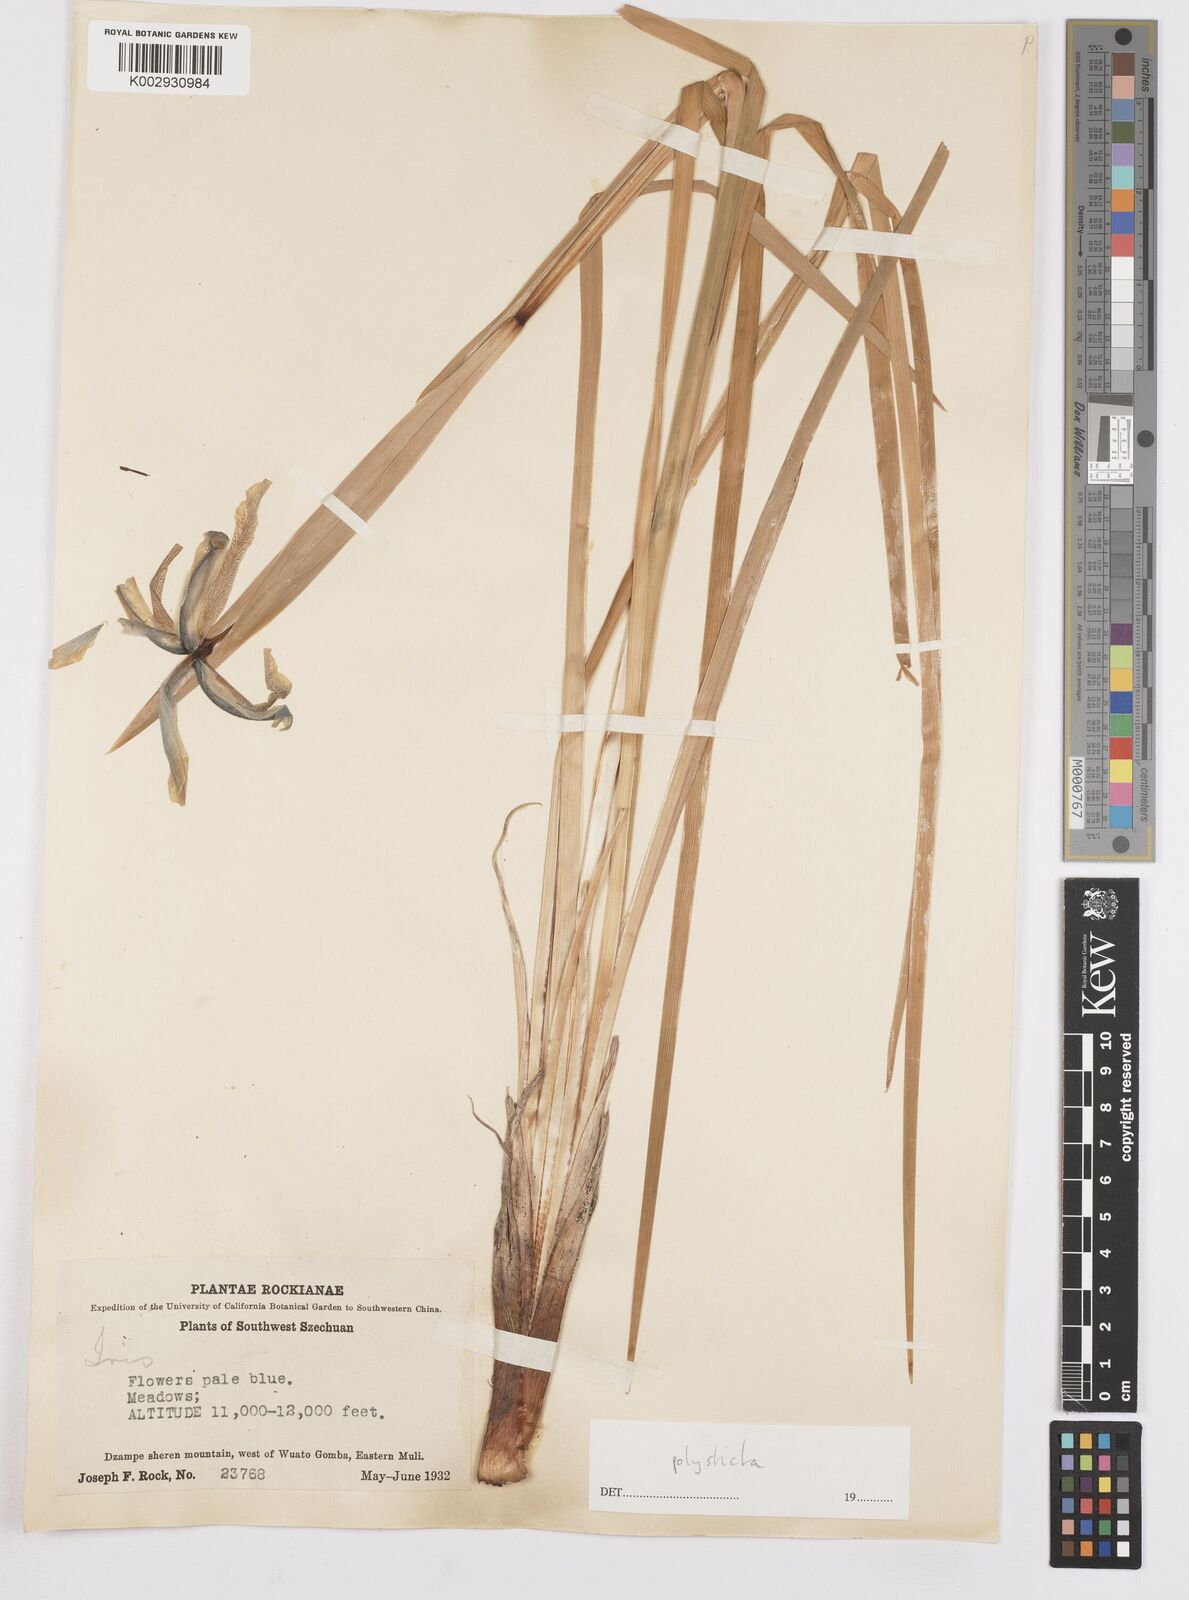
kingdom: Plantae
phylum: Tracheophyta
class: Liliopsida
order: Asparagales
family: Iridaceae
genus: Iris
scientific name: Iris farreri
